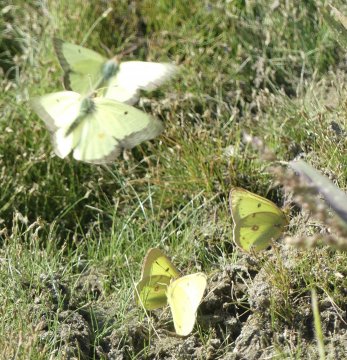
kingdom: Animalia
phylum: Arthropoda
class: Insecta
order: Lepidoptera
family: Pieridae
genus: Colias
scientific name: Colias philodice
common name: Clouded Sulphur
